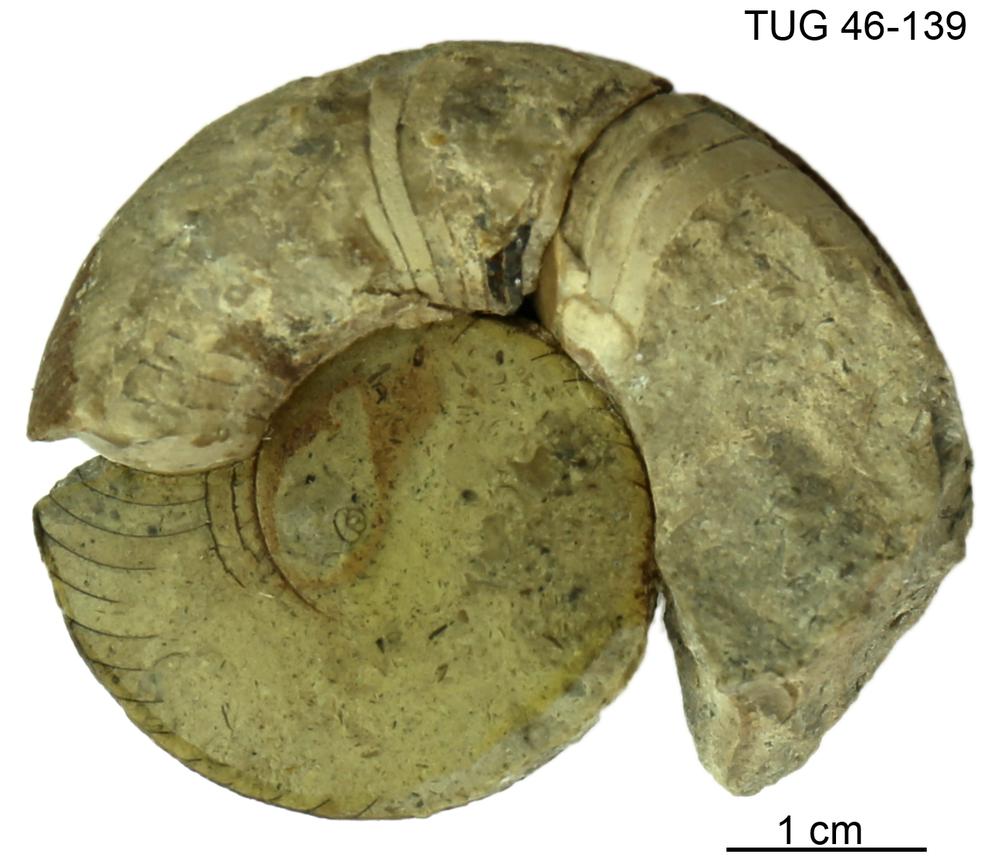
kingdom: Animalia
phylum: Mollusca
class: Cephalopoda
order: Nautilida
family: Nautilidae
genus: Cyrtoceras
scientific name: Cyrtoceras
